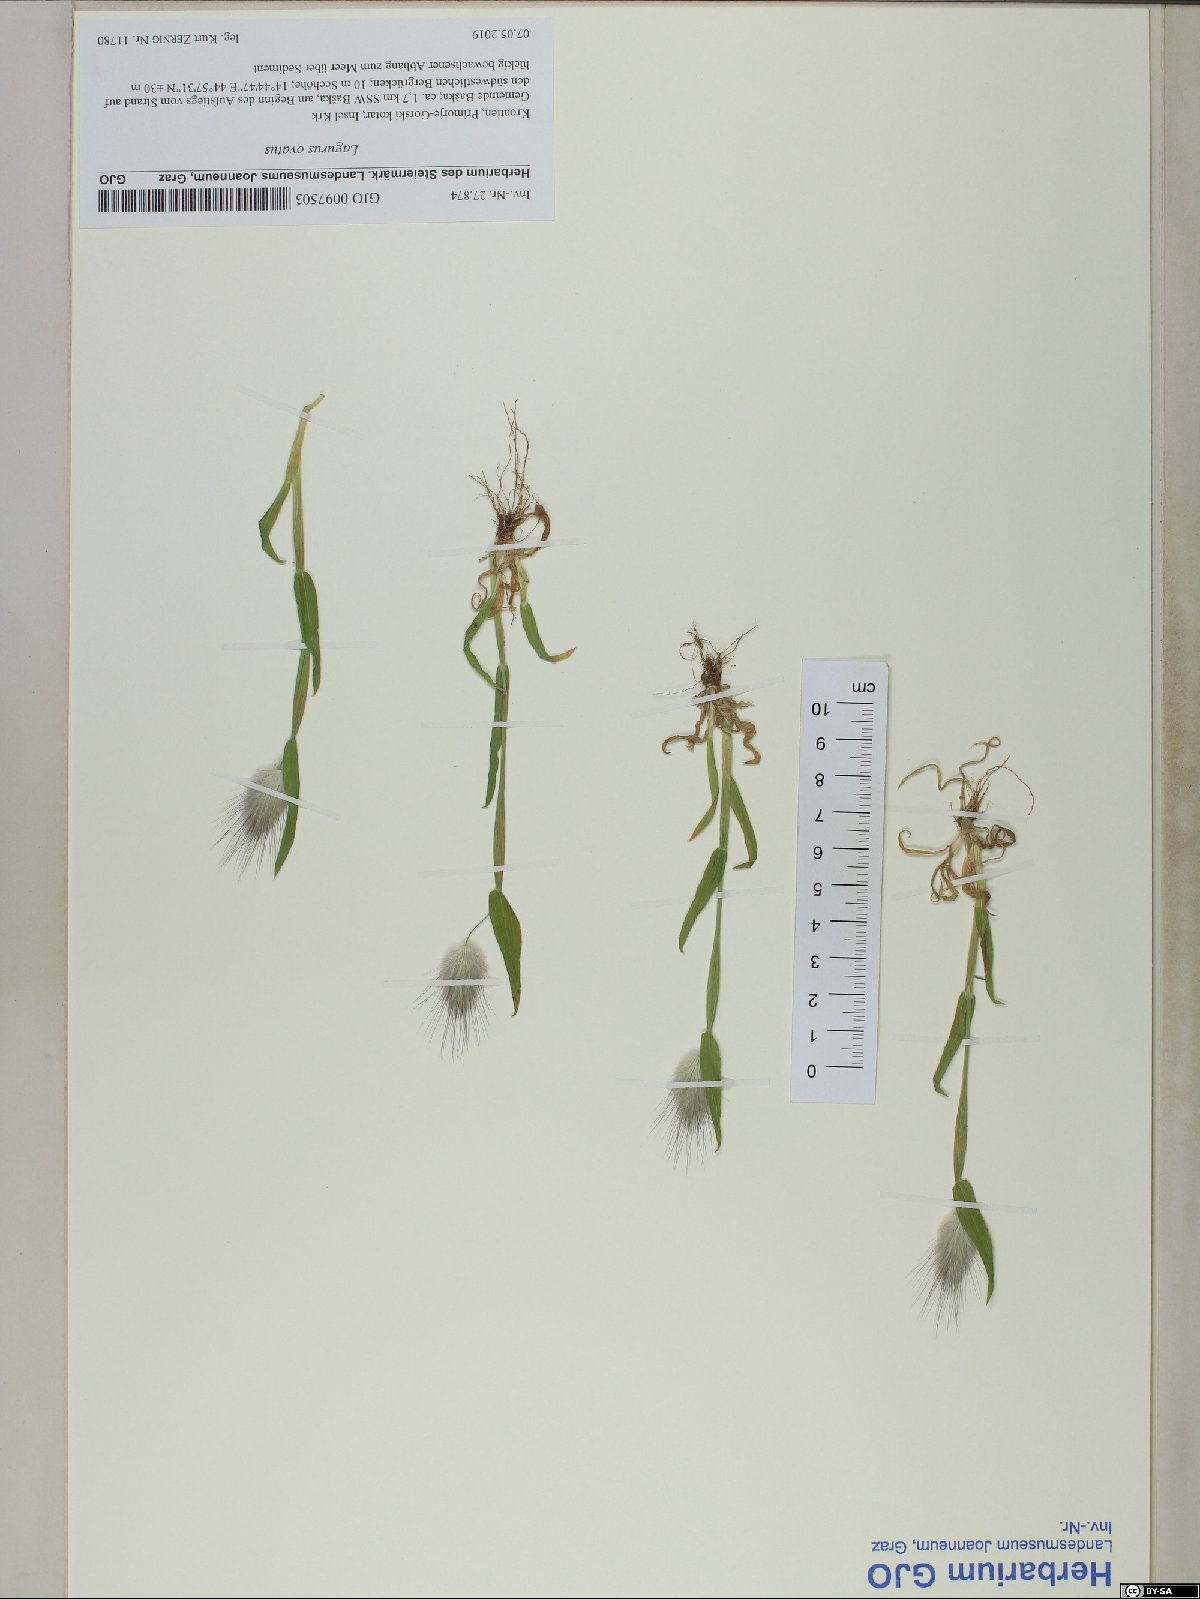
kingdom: Plantae
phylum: Tracheophyta
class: Liliopsida
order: Poales
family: Poaceae
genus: Lagurus
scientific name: Lagurus ovatus
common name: Hare's-tail
